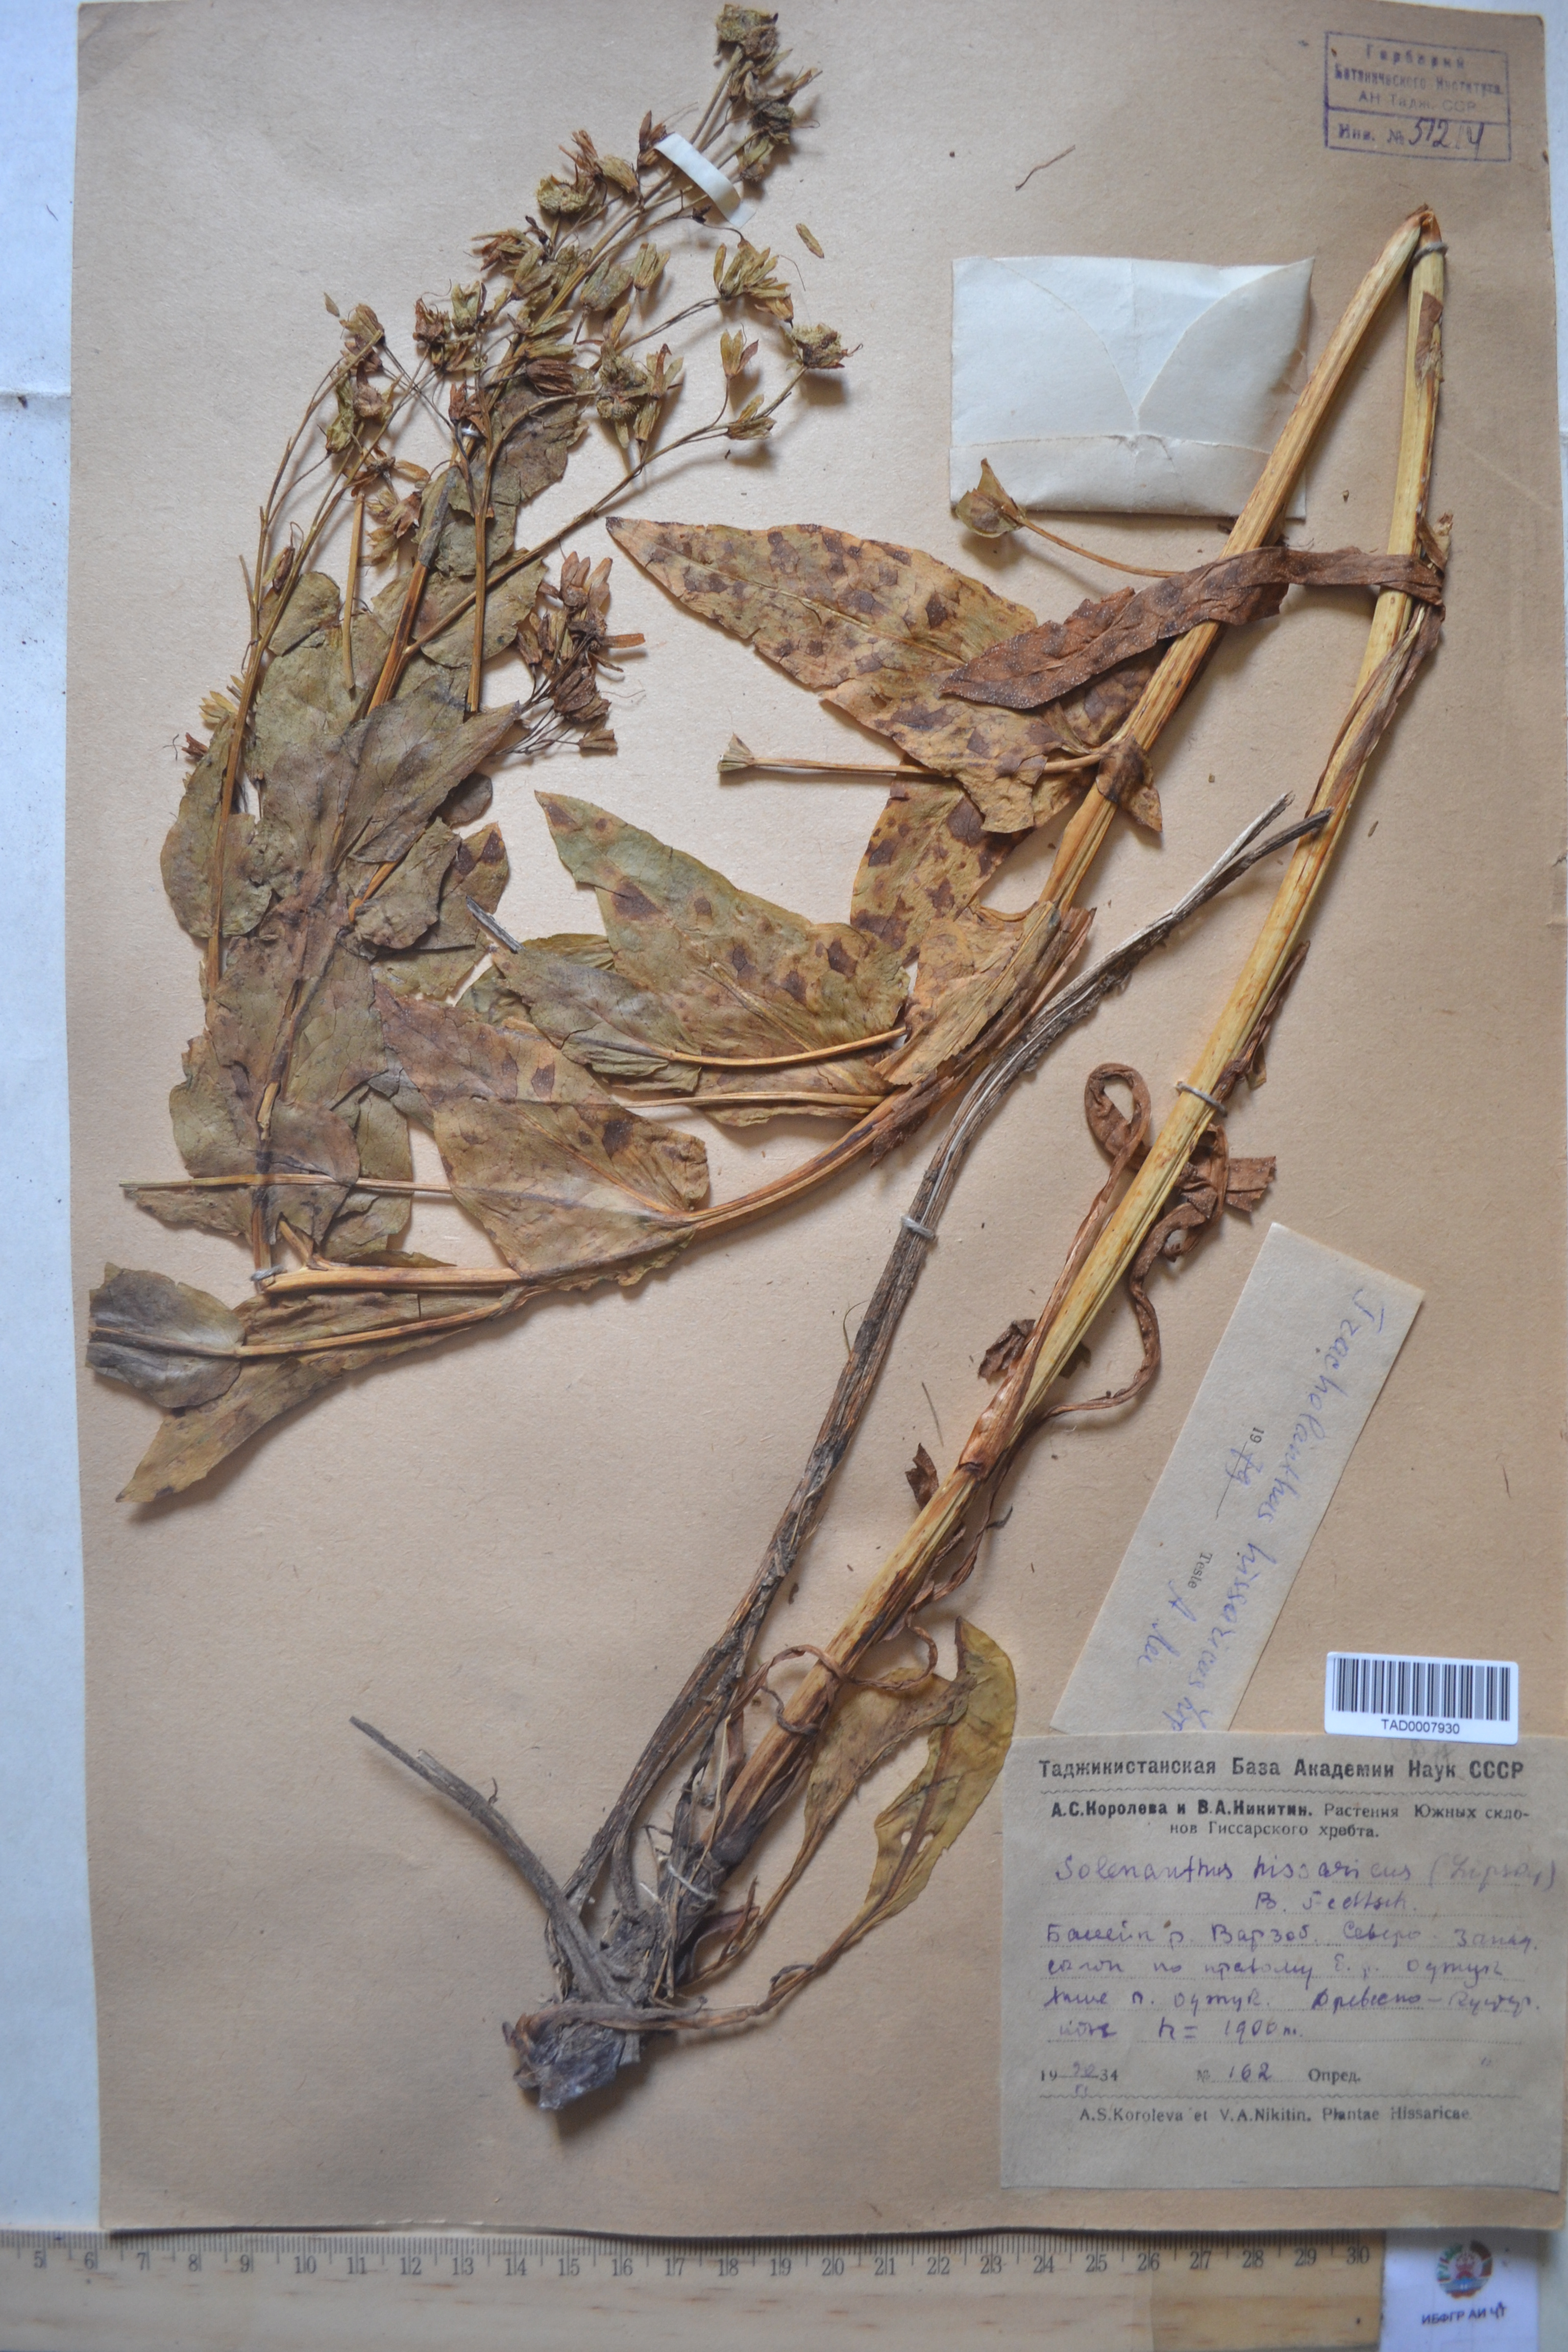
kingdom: Plantae
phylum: Tracheophyta
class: Magnoliopsida
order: Boraginales
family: Boraginaceae
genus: Lindelofia
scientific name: Lindelofia hissarica
